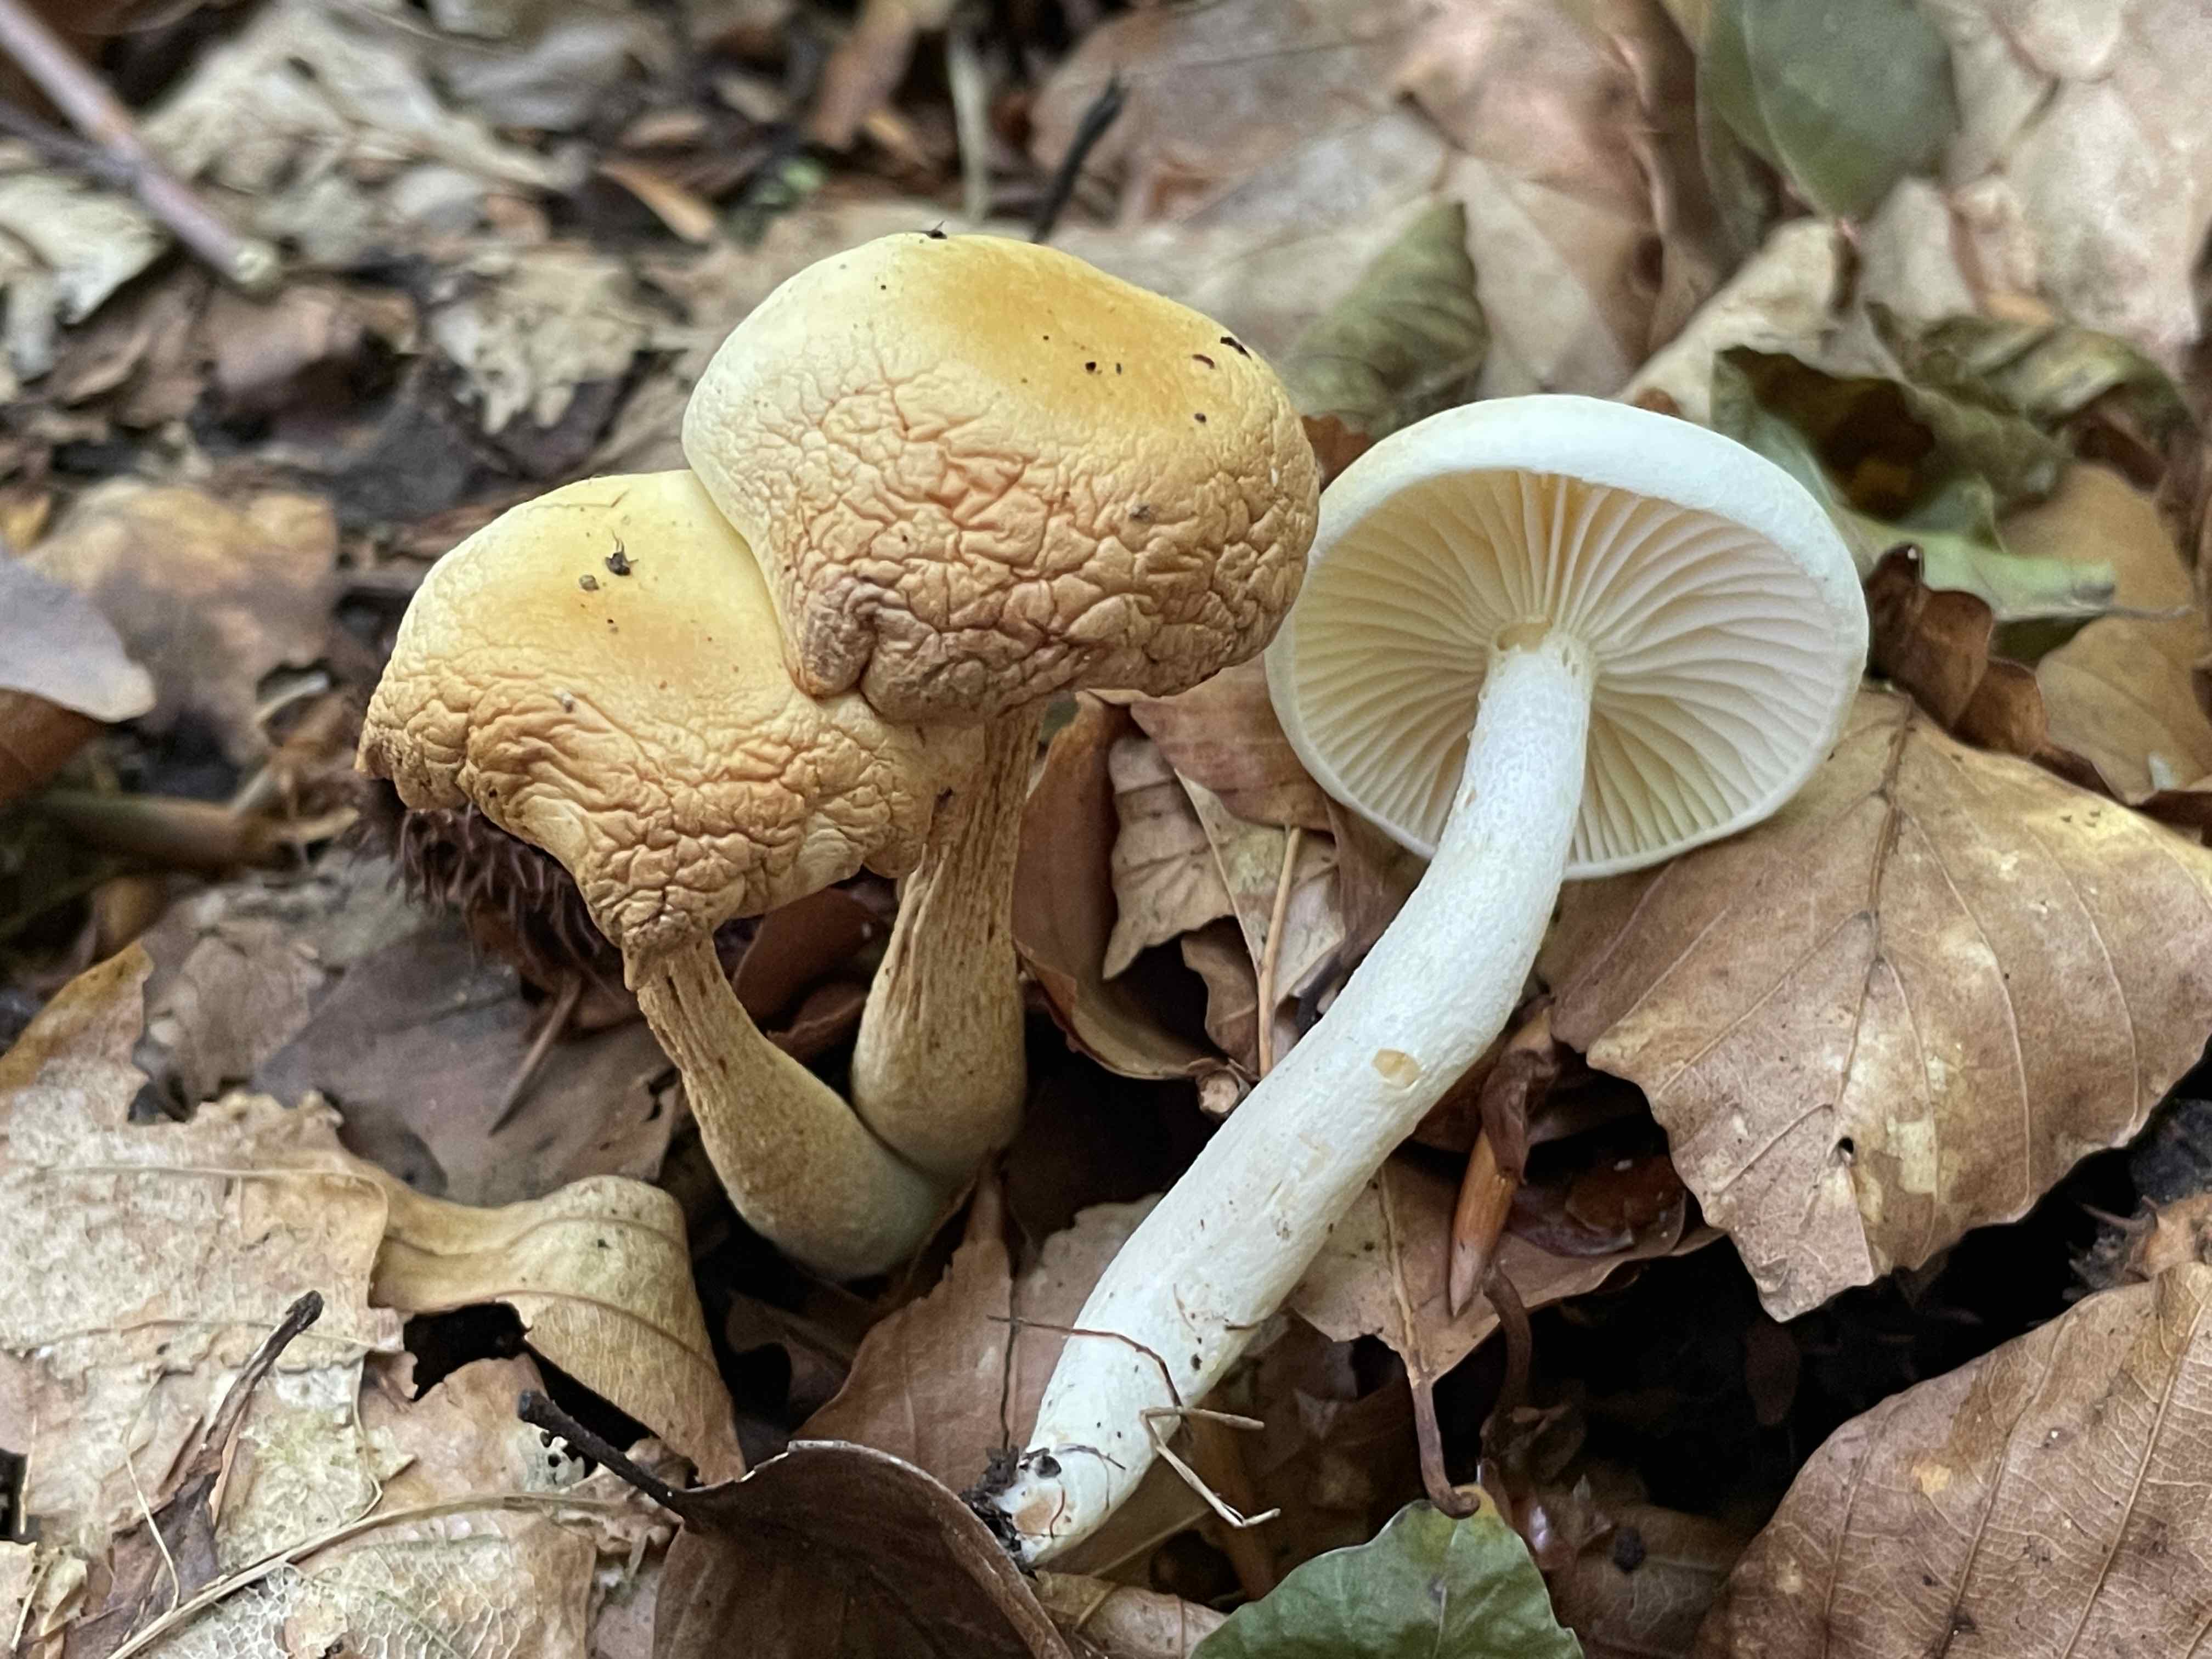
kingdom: Fungi
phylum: Basidiomycota
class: Agaricomycetes
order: Agaricales
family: Hygrophoraceae
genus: Hygrophorus
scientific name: Hygrophorus discoxanthus
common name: ildelugtende sneglehat
